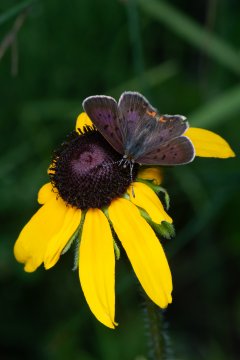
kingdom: Animalia
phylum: Arthropoda
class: Insecta
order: Lepidoptera
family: Lycaenidae
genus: Epidemia
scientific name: Epidemia dorcas
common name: Dorcas Copper
